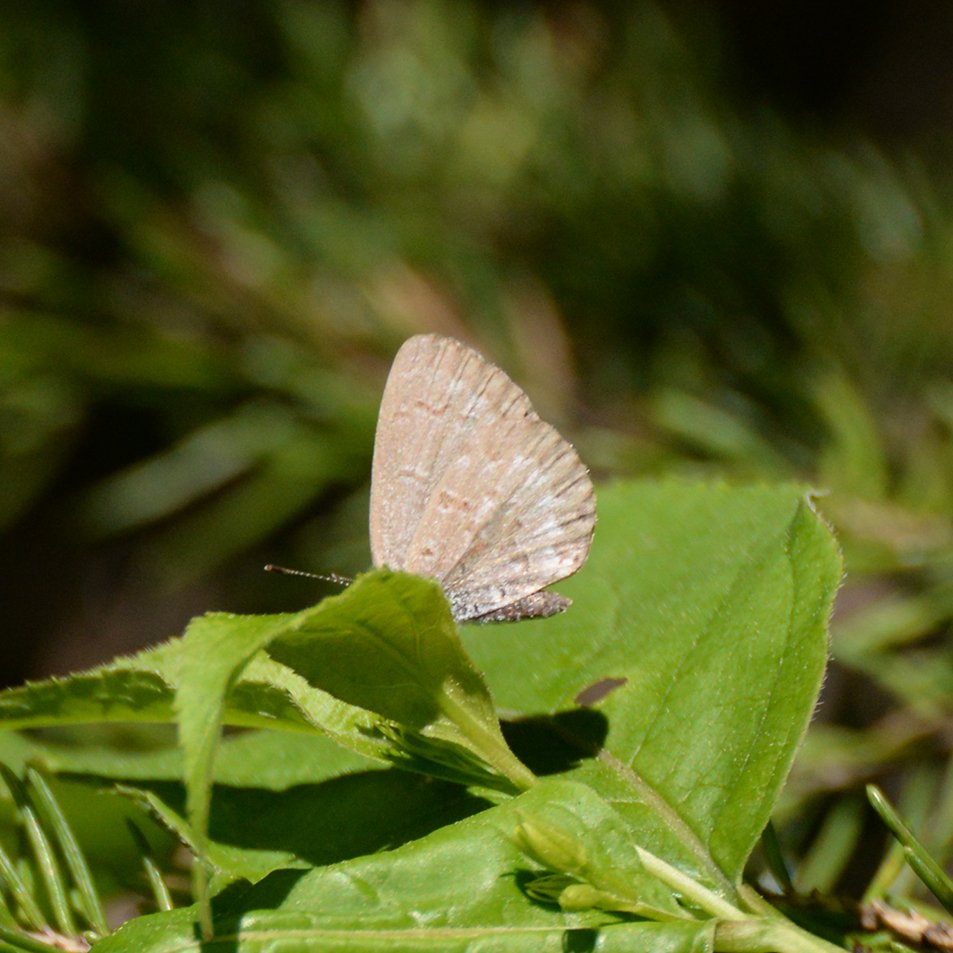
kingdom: Animalia
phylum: Arthropoda
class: Insecta
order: Lepidoptera
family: Lycaenidae
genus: Celastrina
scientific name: Celastrina lucia
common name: Northern Spring Azure
